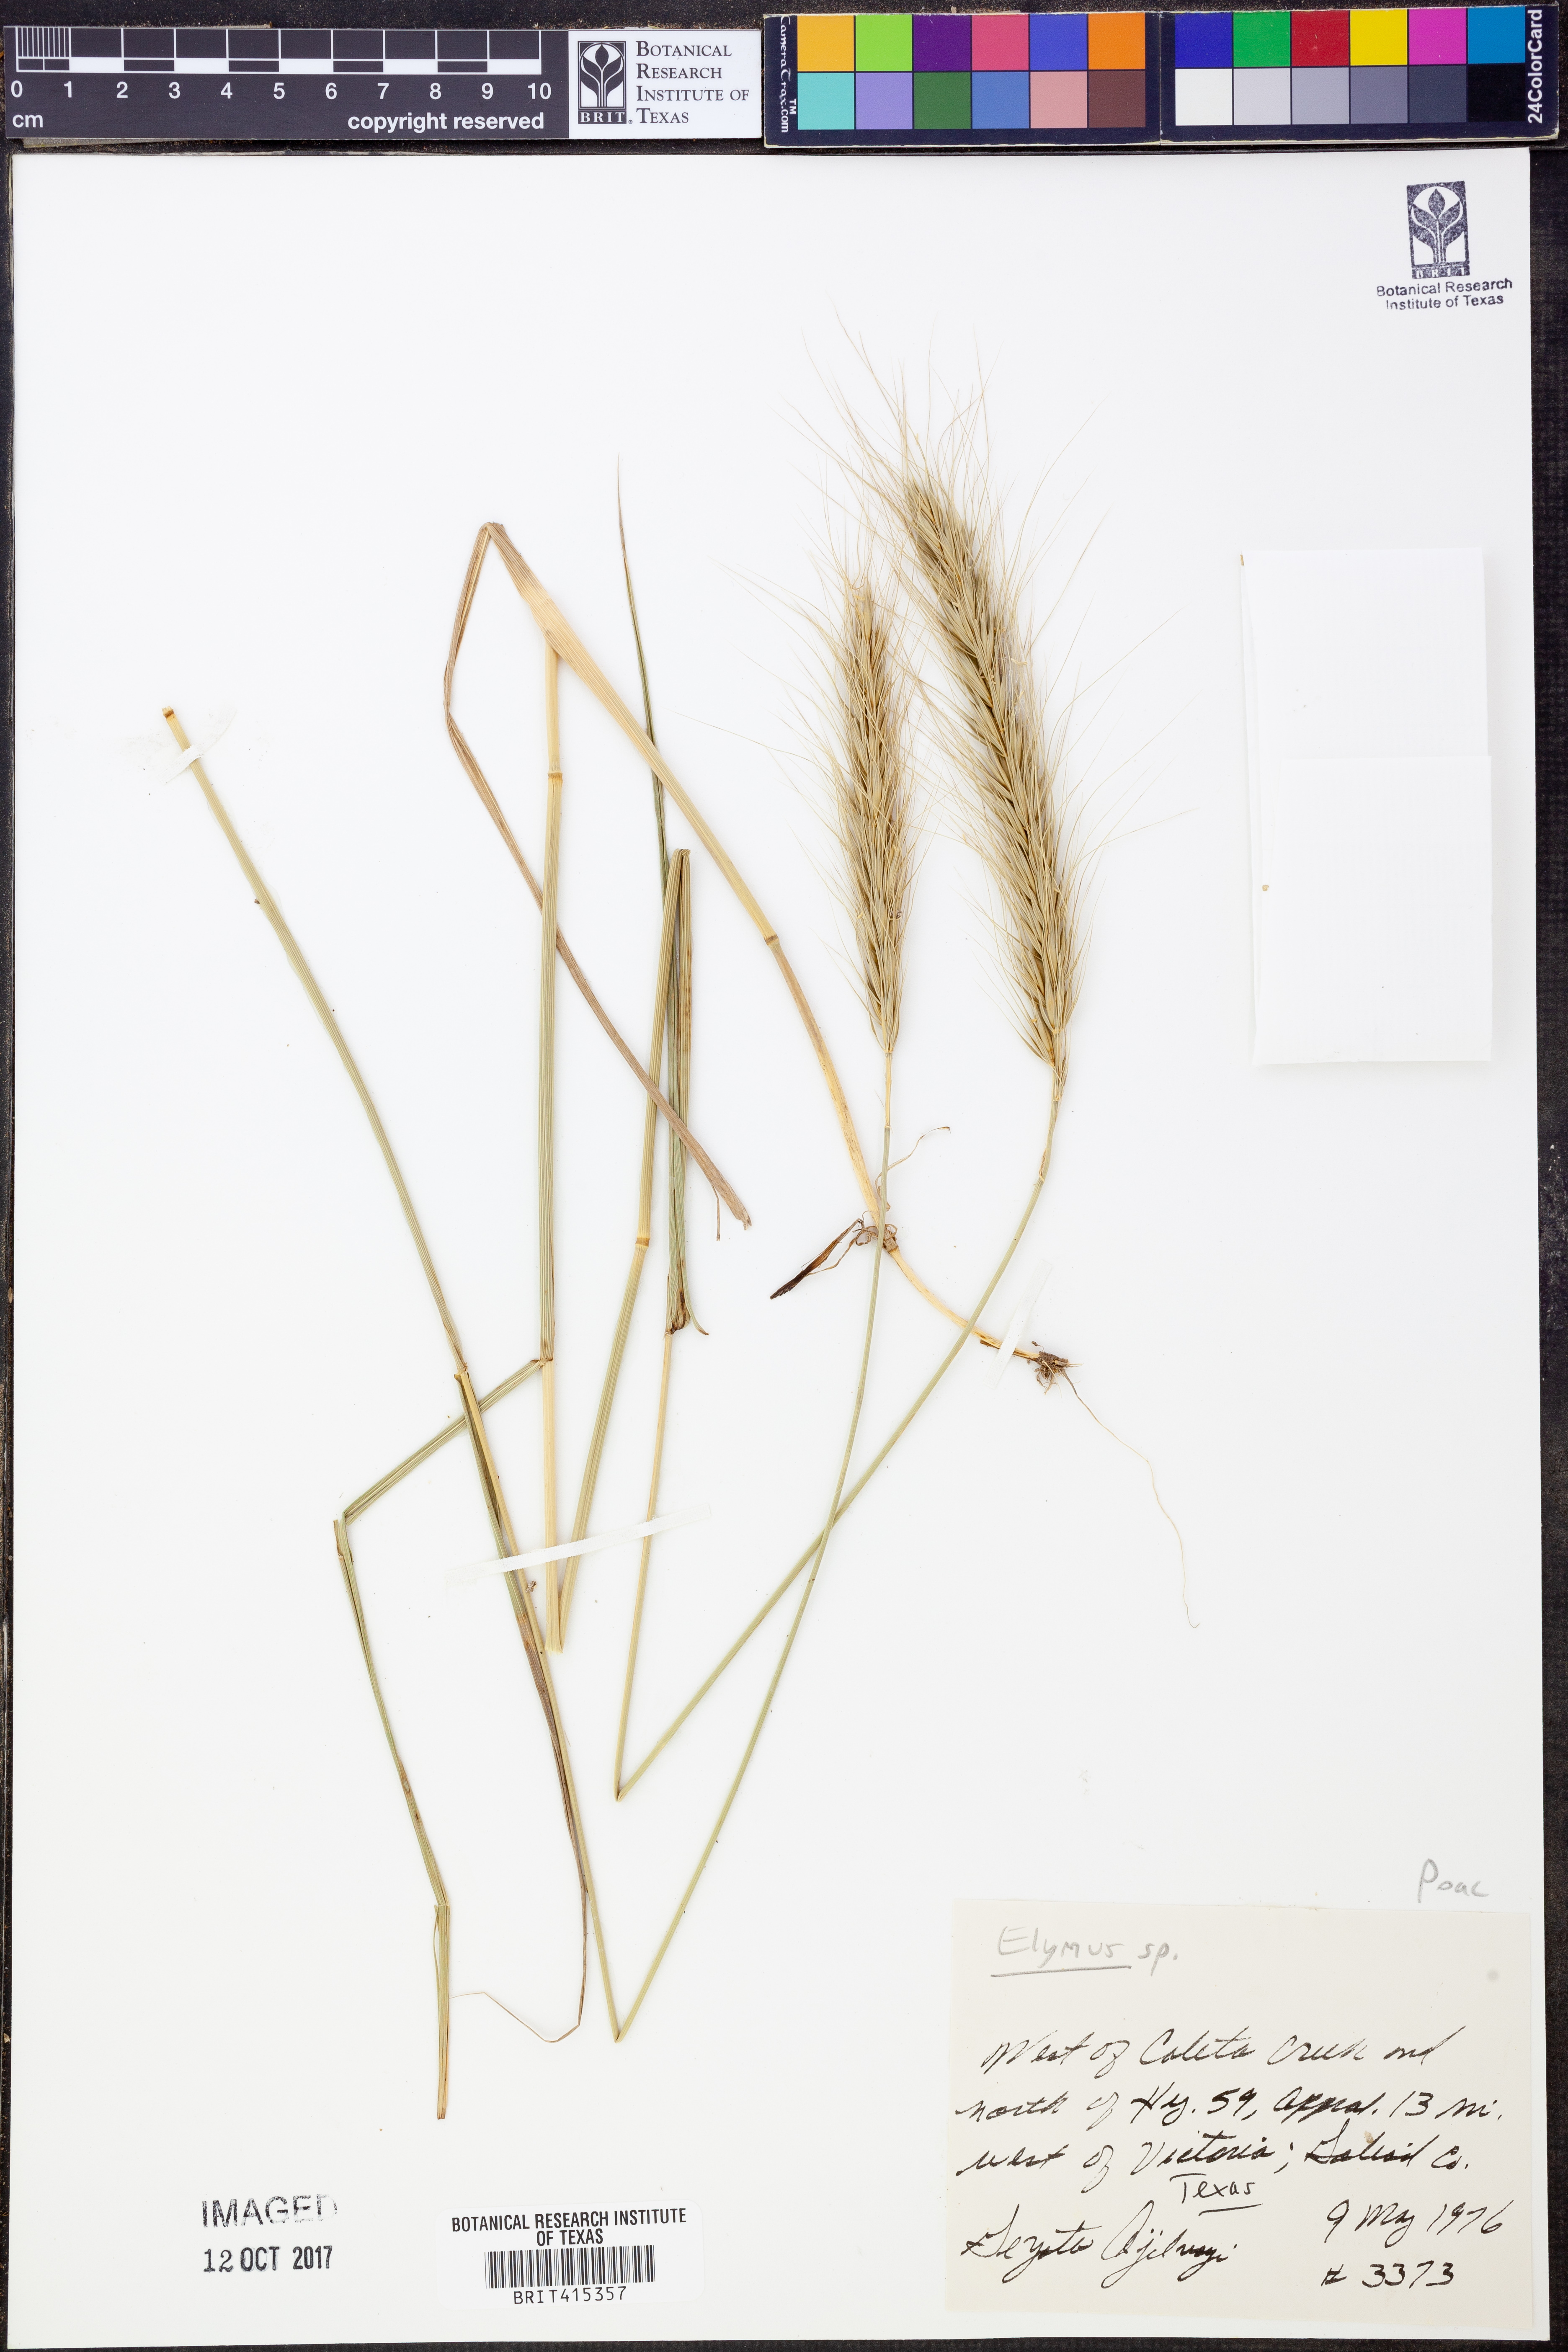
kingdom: Plantae
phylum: Tracheophyta
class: Liliopsida
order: Poales
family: Poaceae
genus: Elymus
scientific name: Elymus
